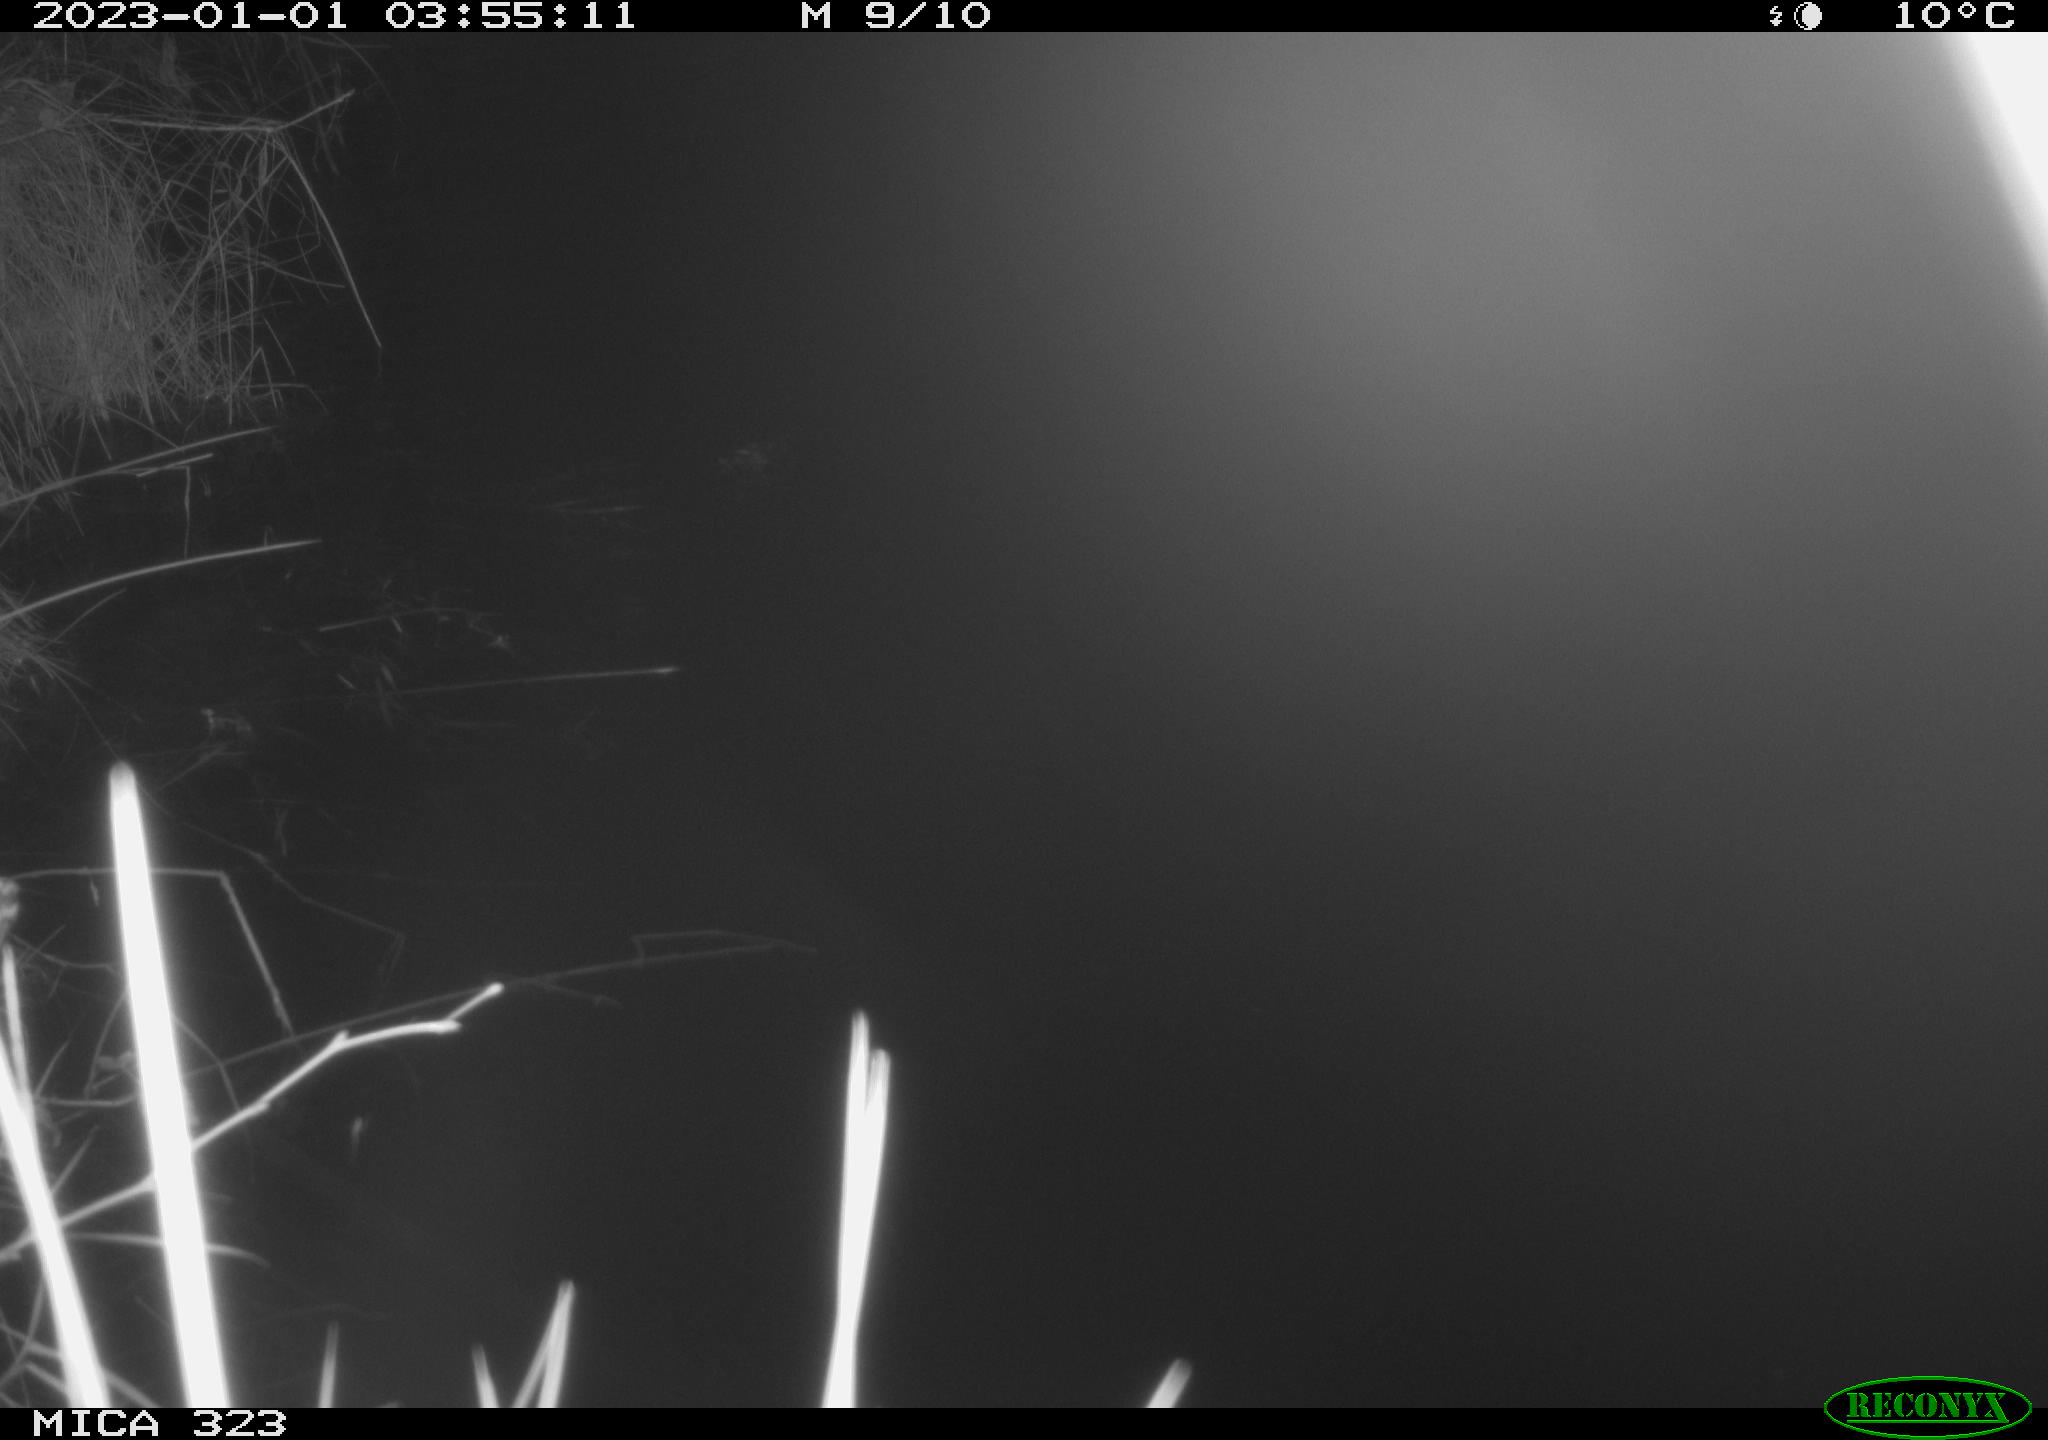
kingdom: Animalia
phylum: Chordata
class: Mammalia
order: Rodentia
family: Cricetidae
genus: Ondatra
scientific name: Ondatra zibethicus
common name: Muskrat
